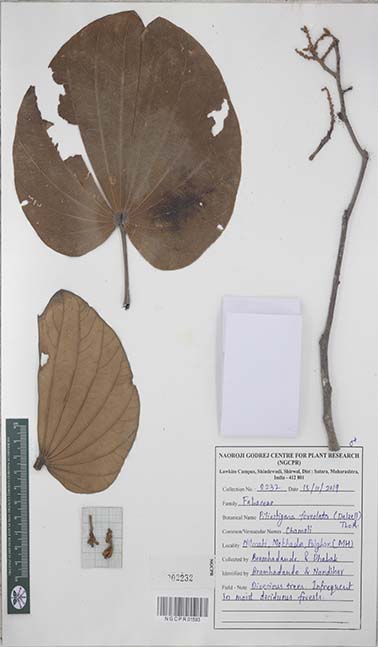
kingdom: Plantae
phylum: Tracheophyta
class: Magnoliopsida
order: Fabales
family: Fabaceae
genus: Piliostigma
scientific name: Piliostigma foveolatum
